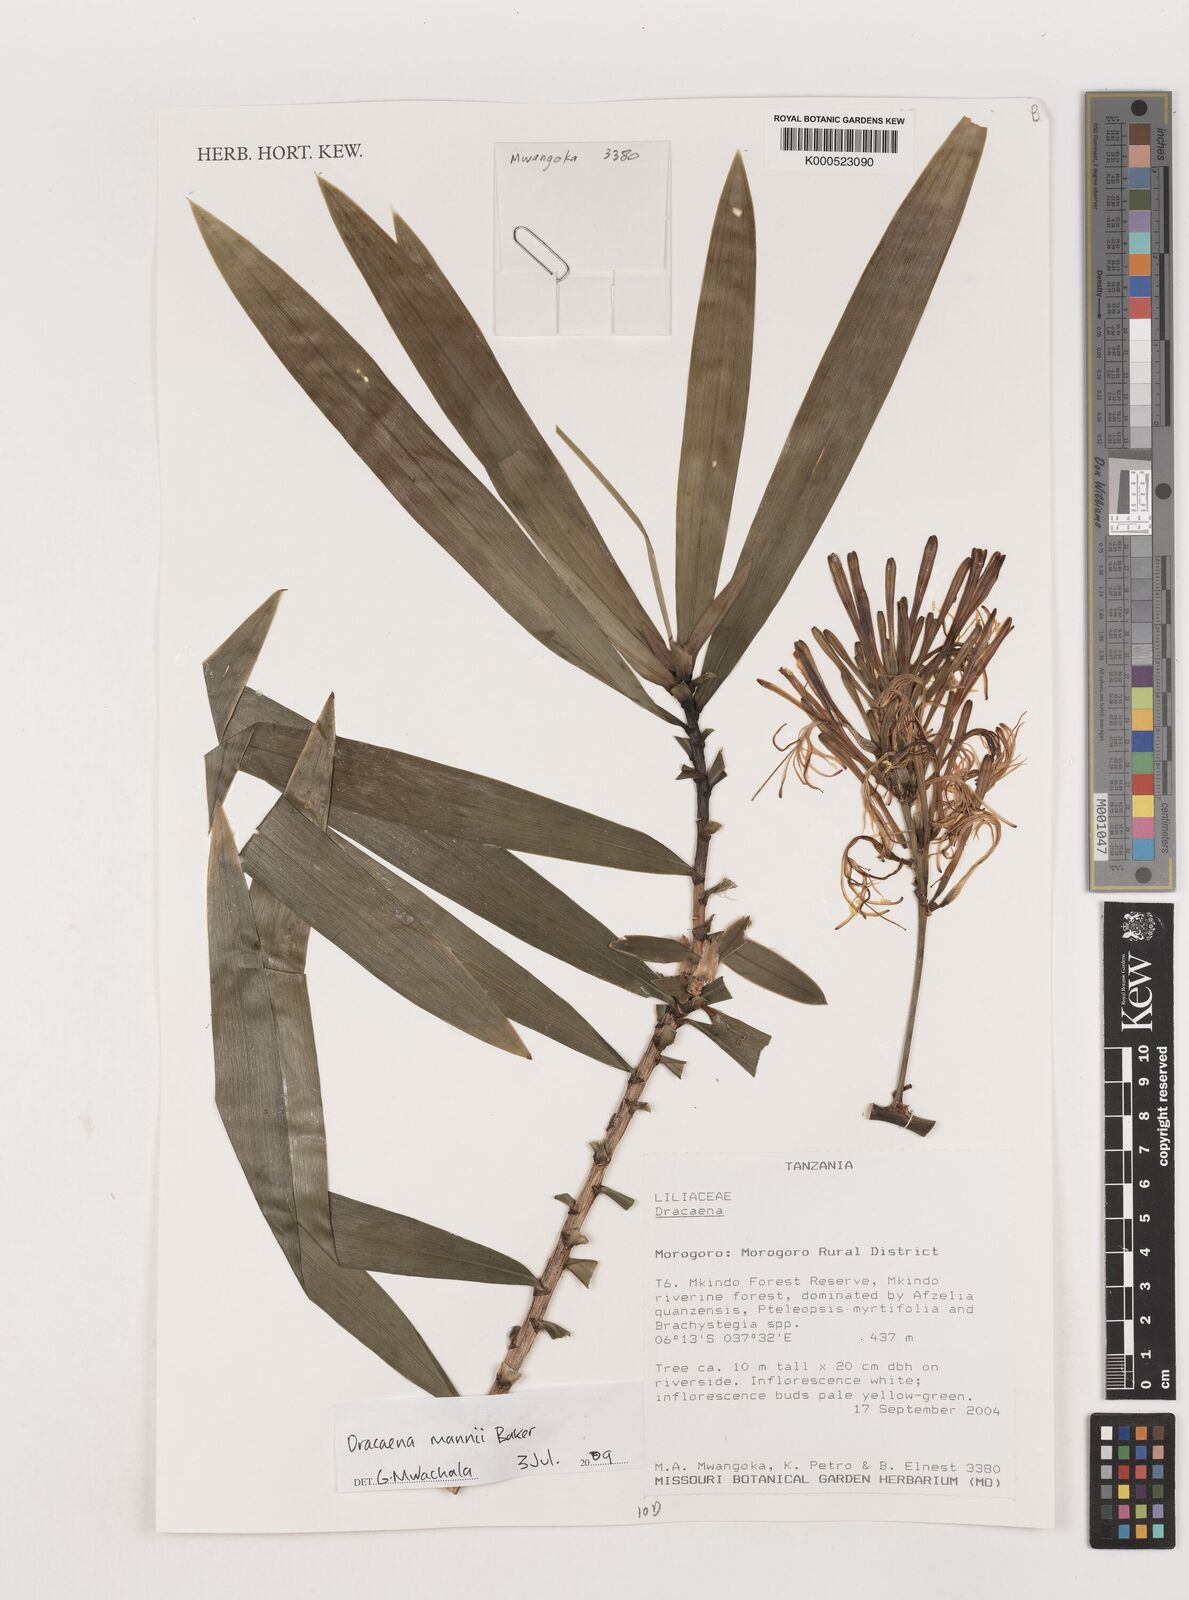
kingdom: Plantae
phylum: Tracheophyta
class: Liliopsida
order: Asparagales
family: Asparagaceae
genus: Dracaena
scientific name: Dracaena mannii
